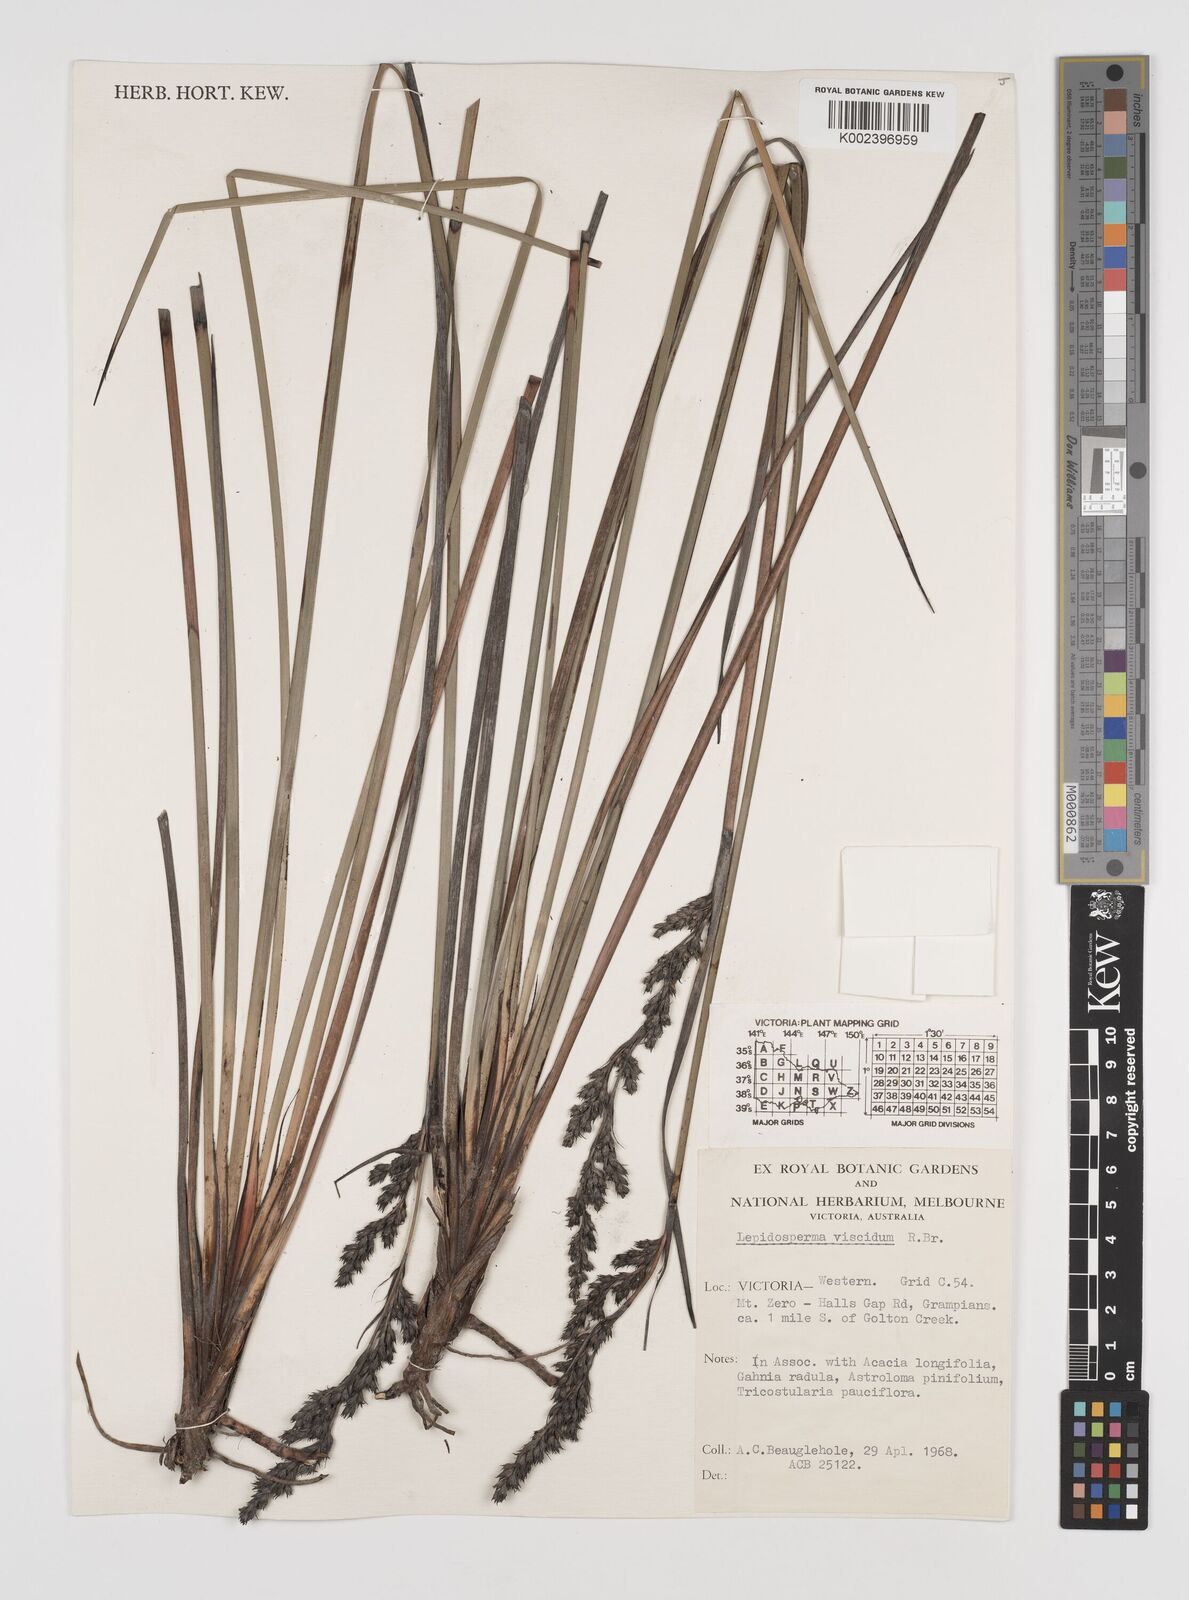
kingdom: Plantae
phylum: Tracheophyta
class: Liliopsida
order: Poales
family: Cyperaceae
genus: Lepidosperma
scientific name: Lepidosperma viscidum
